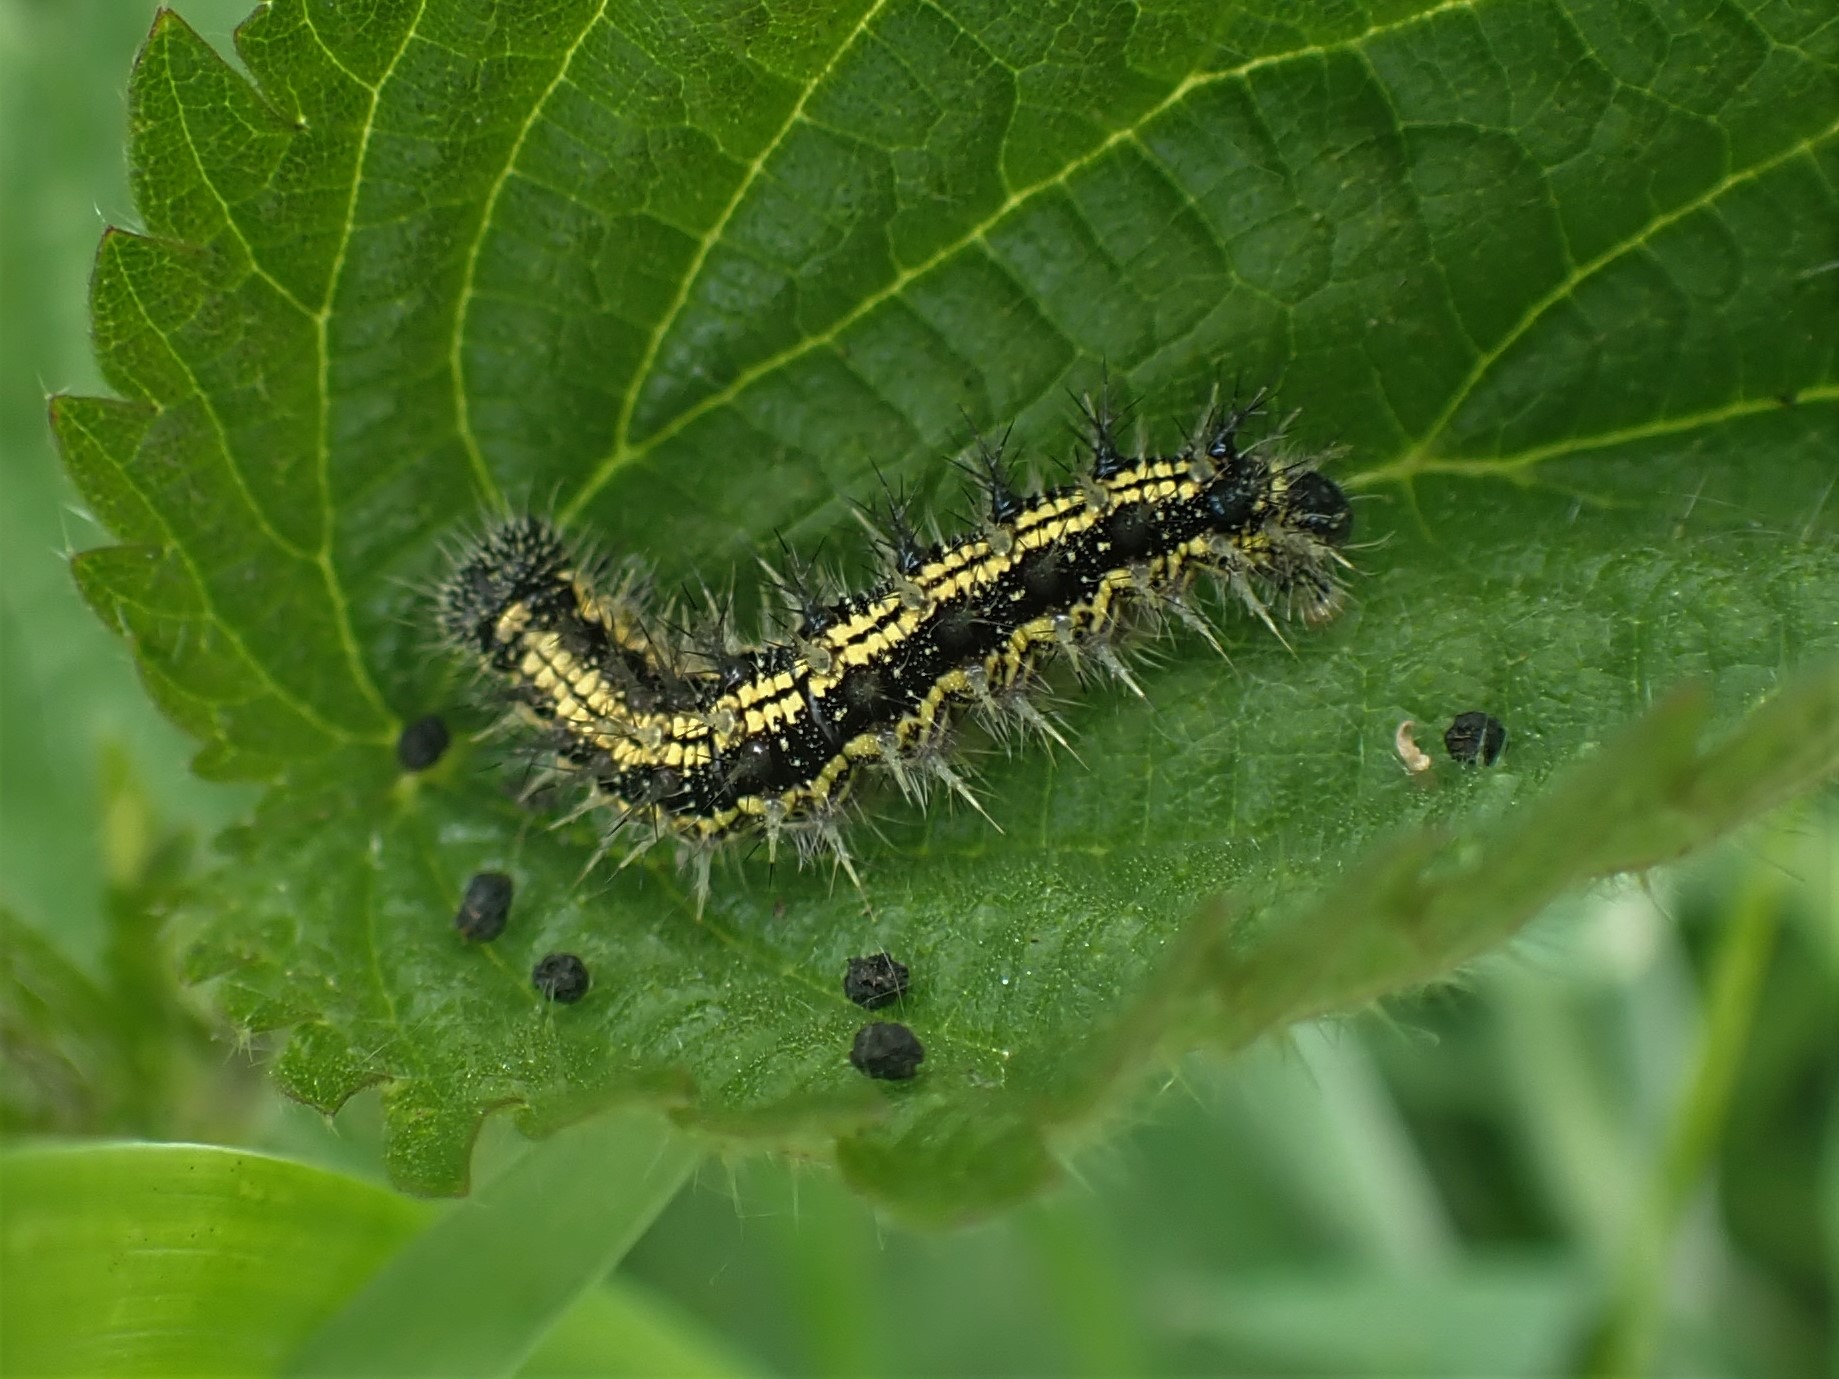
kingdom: Animalia
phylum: Arthropoda
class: Insecta
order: Lepidoptera
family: Nymphalidae
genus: Aglais
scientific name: Aglais urticae
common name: Nældens takvinge
